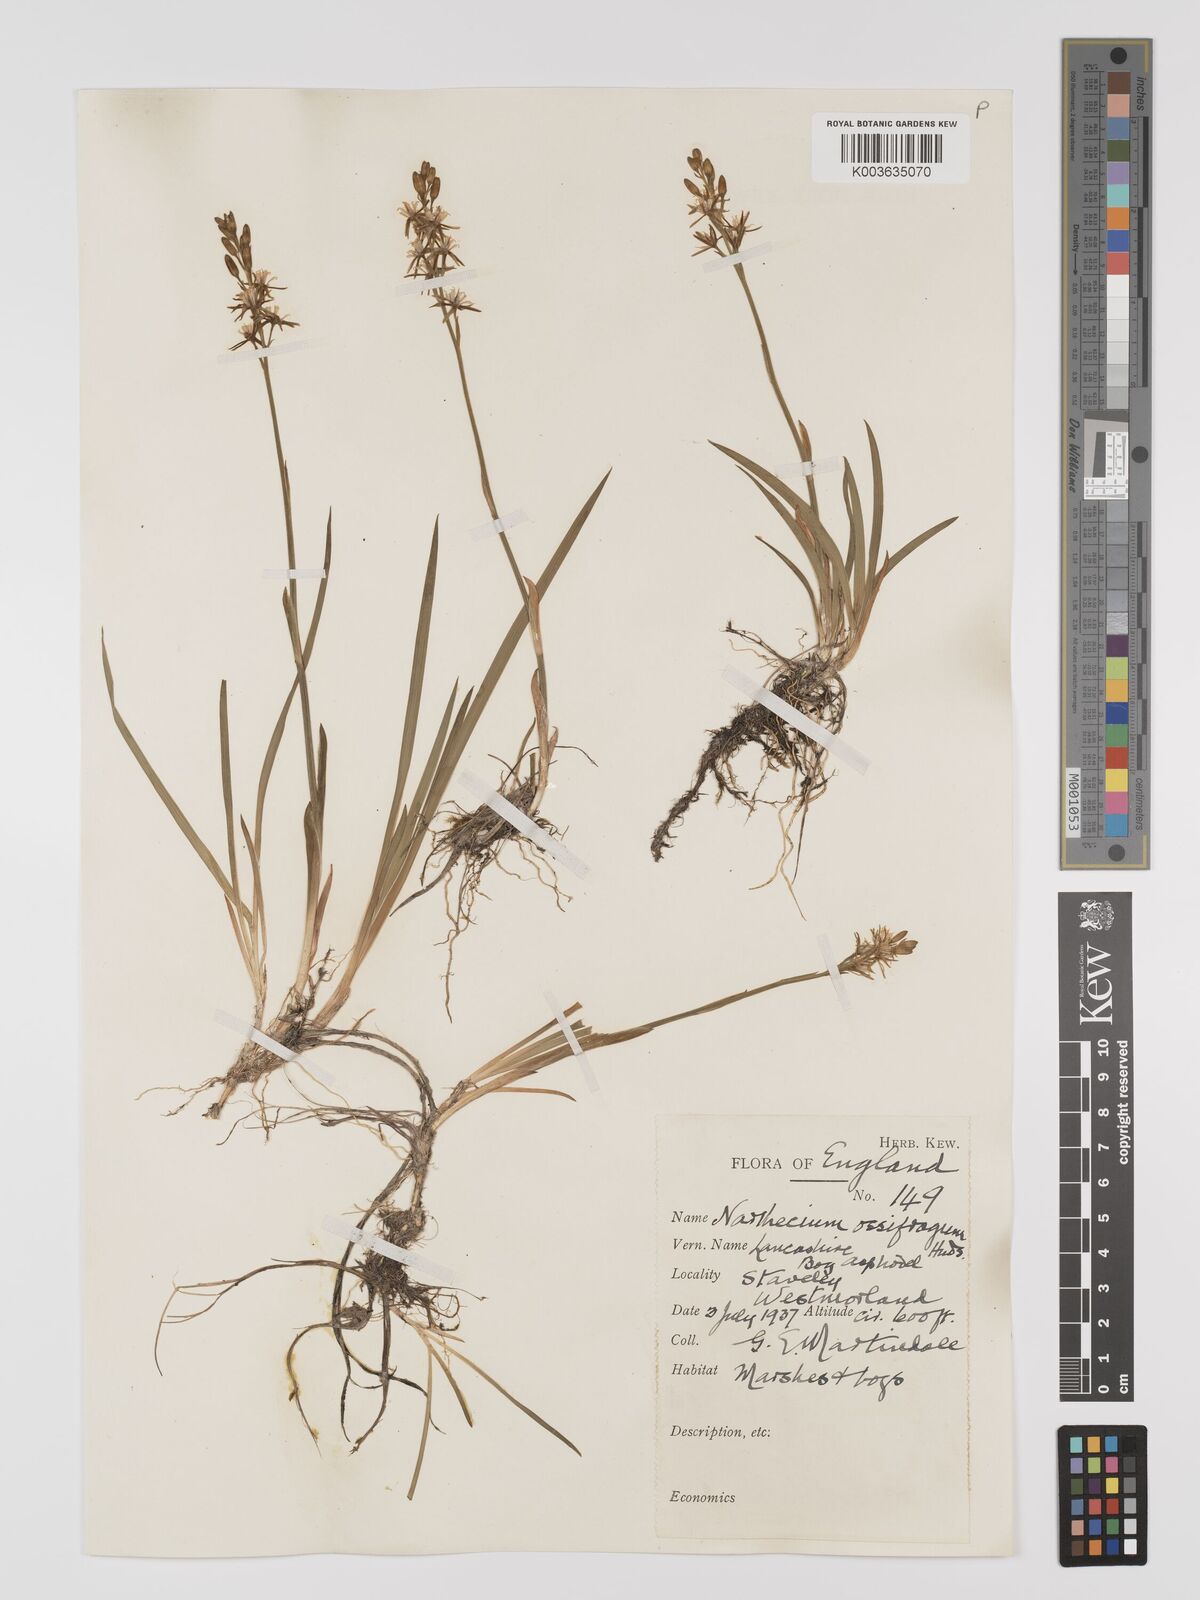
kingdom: Plantae
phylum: Tracheophyta
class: Liliopsida
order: Dioscoreales
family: Nartheciaceae
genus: Narthecium
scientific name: Narthecium
